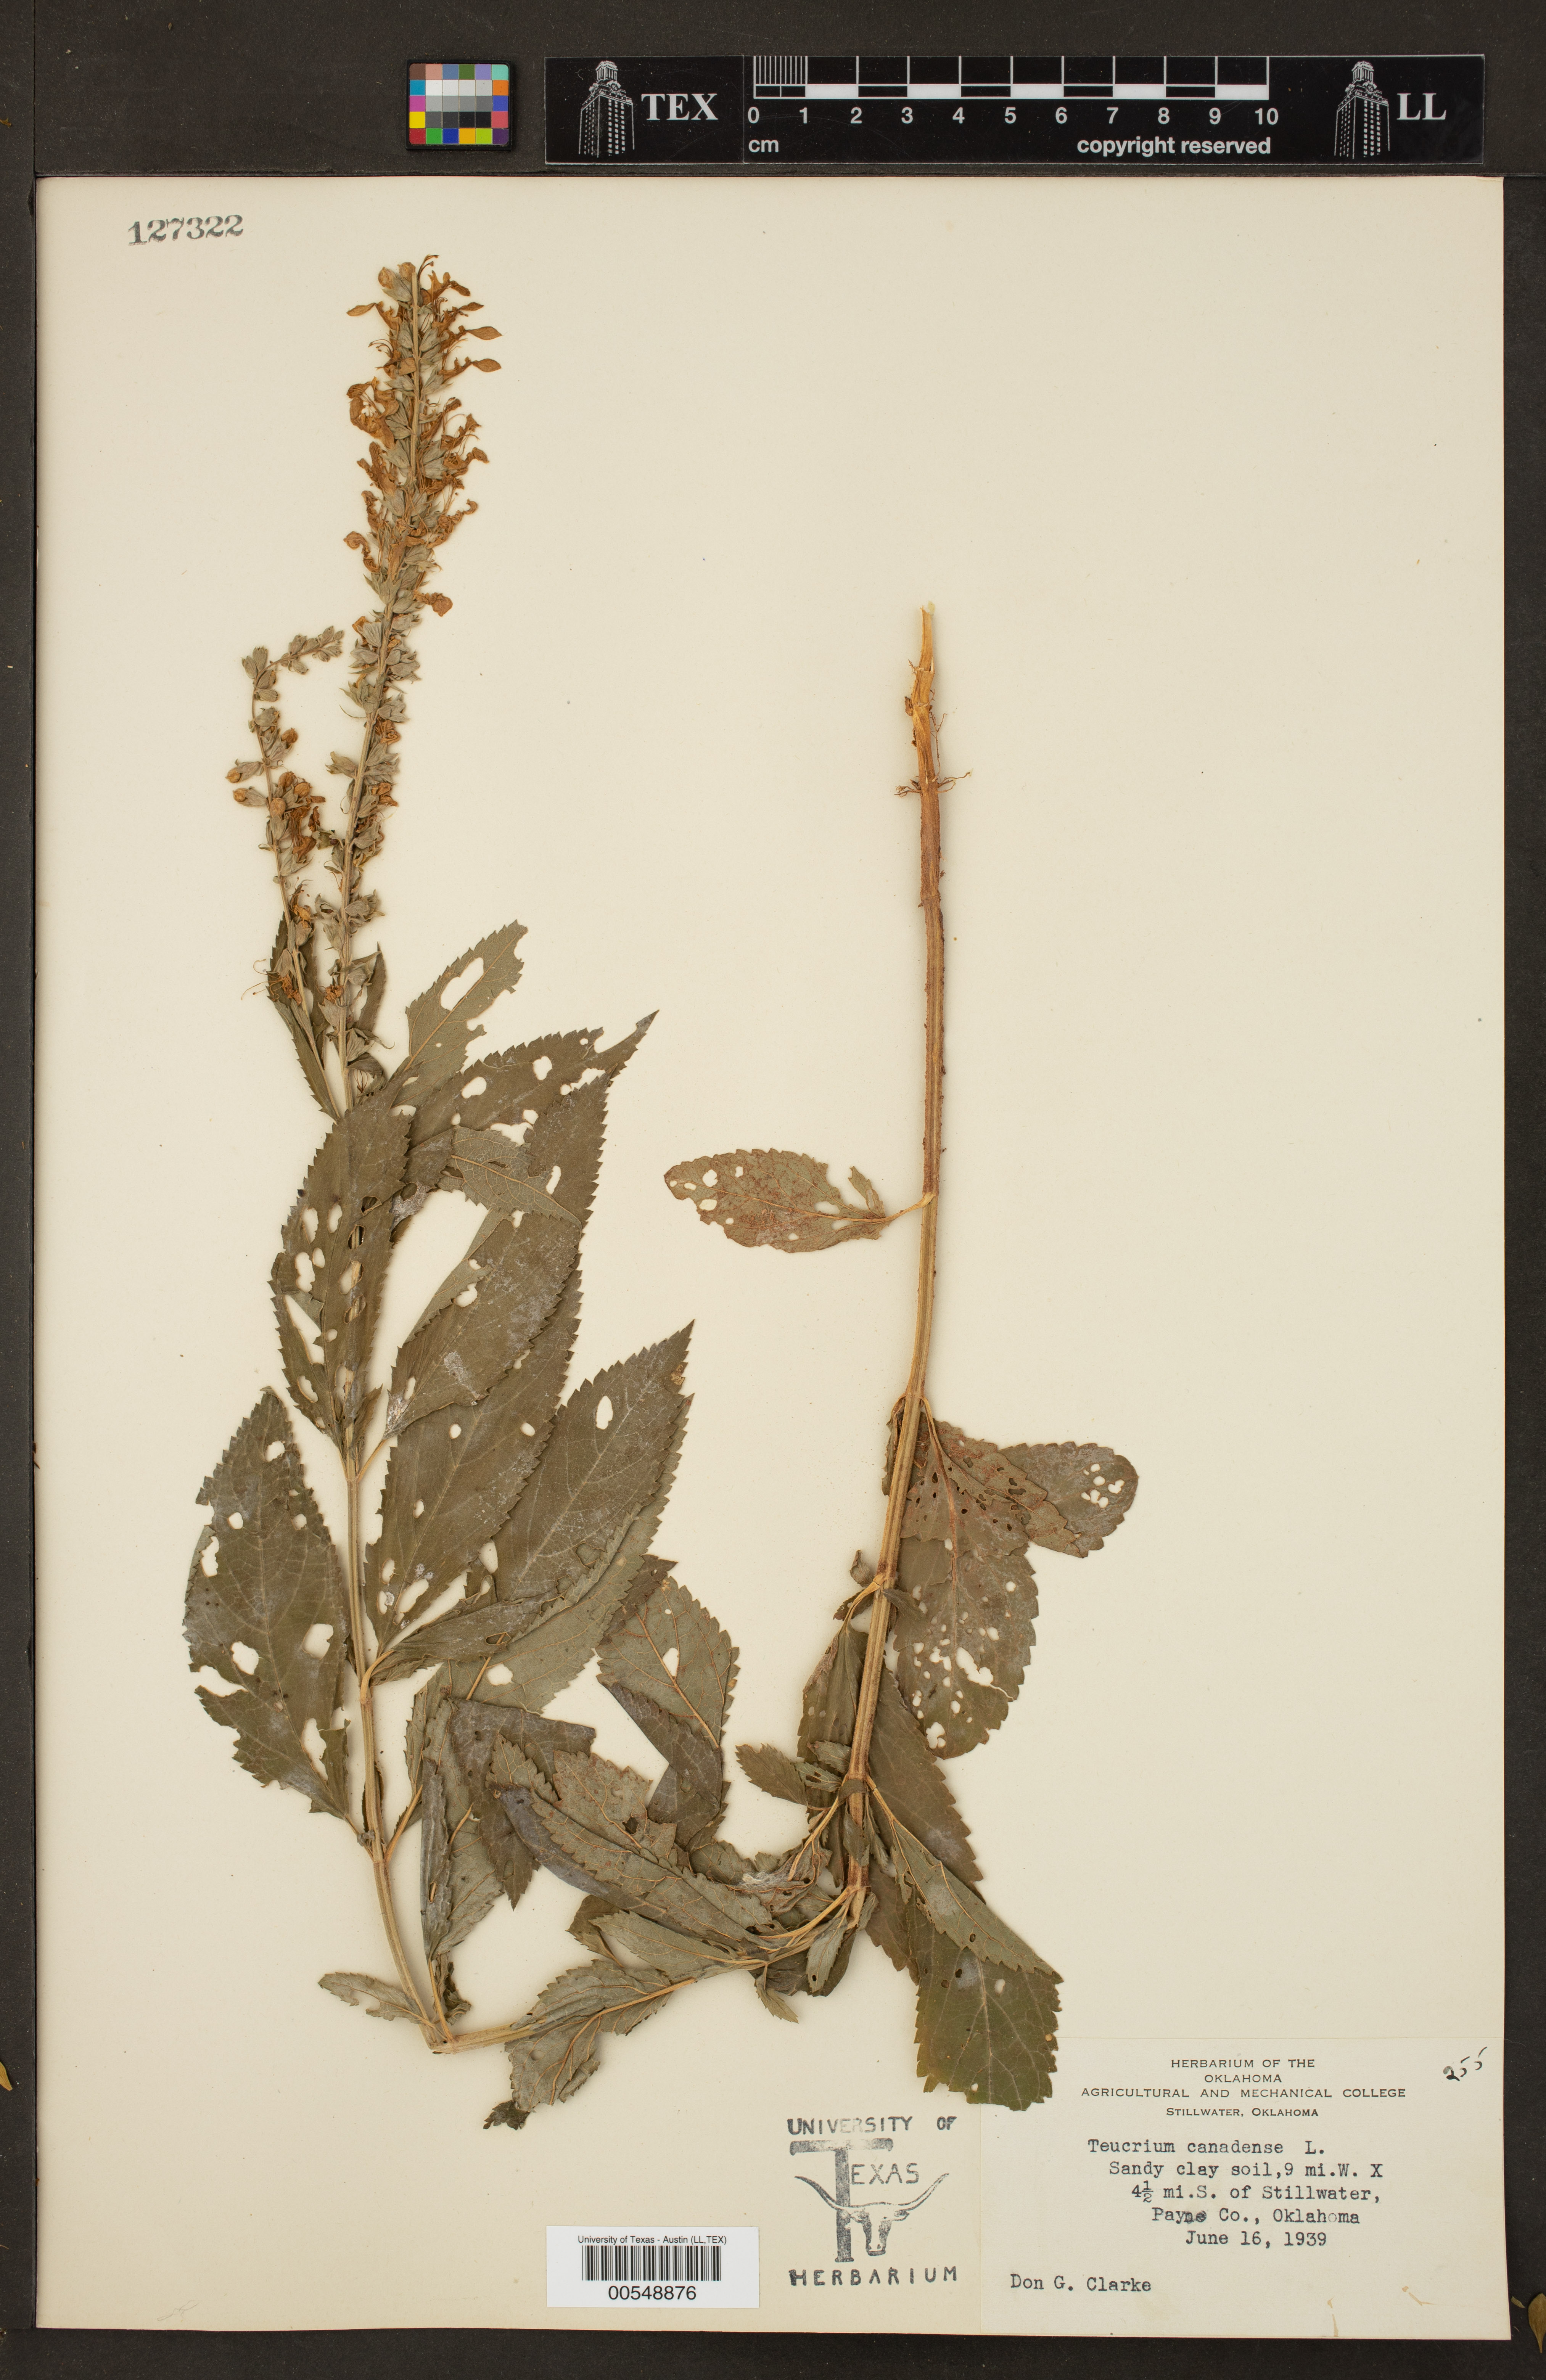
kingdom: Plantae
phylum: Tracheophyta
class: Magnoliopsida
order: Lamiales
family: Lamiaceae
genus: Teucrium
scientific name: Teucrium canadense
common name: American germander
